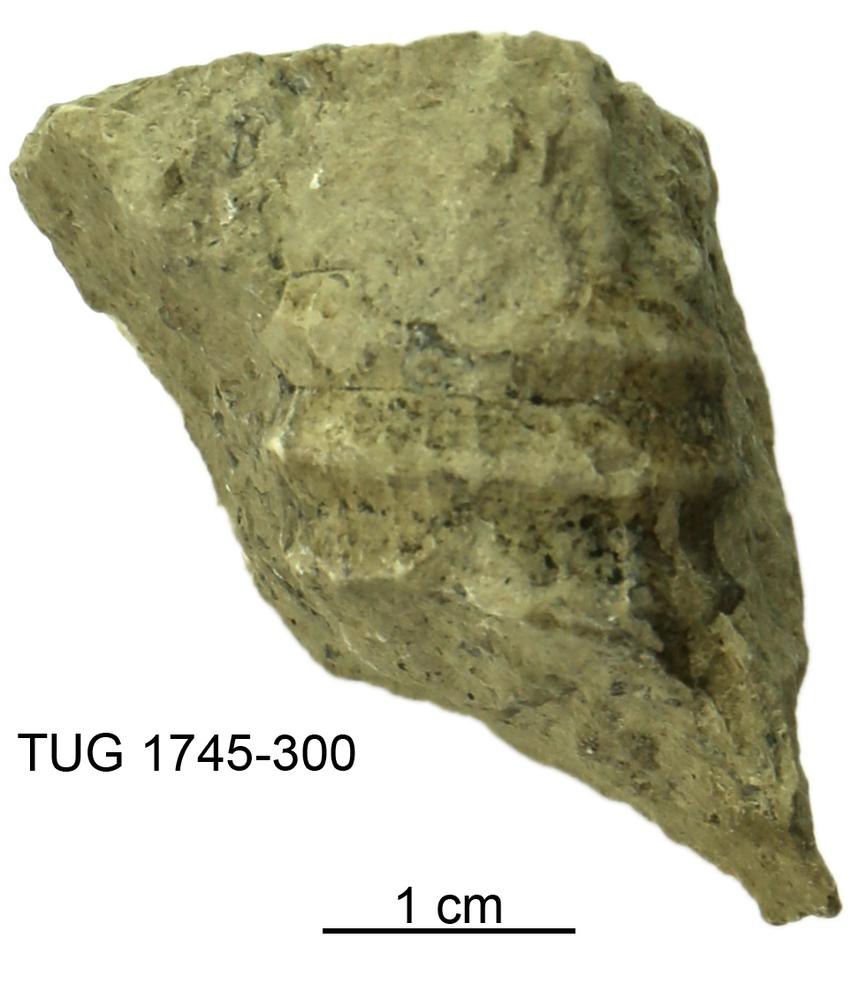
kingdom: Animalia
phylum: Mollusca
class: Cephalopoda
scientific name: Cephalopoda
